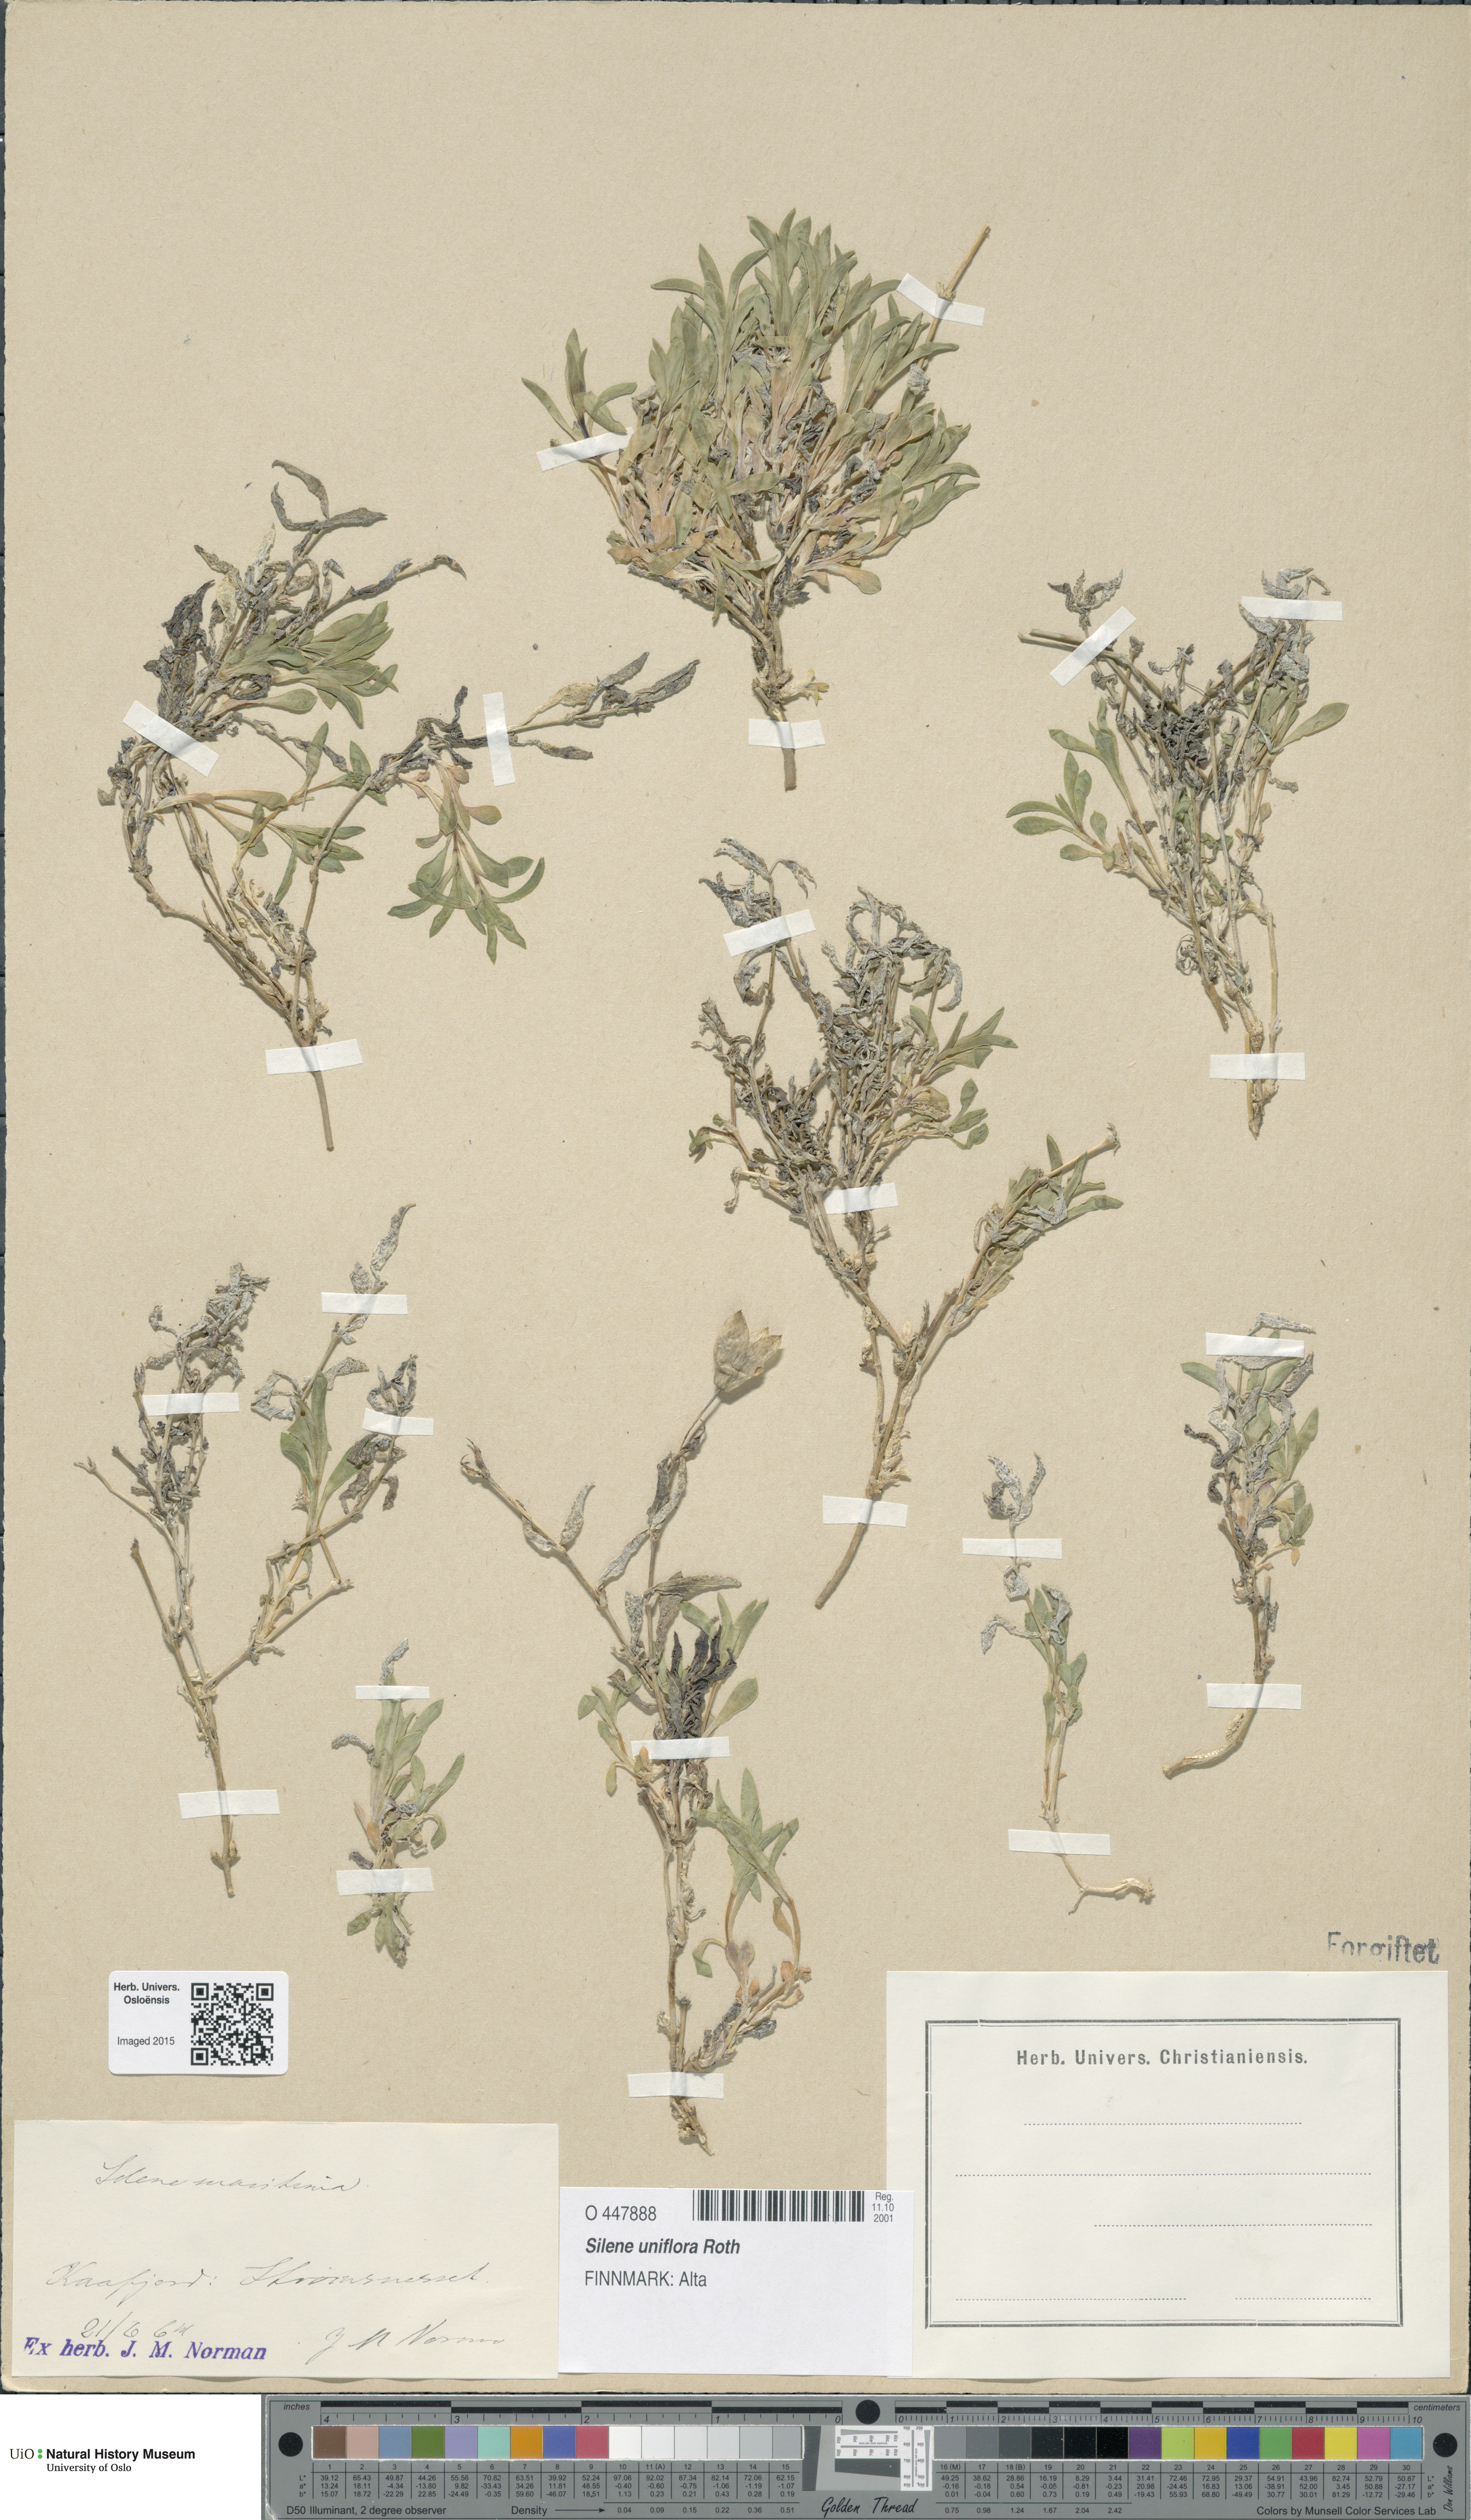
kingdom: Plantae
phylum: Tracheophyta
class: Magnoliopsida
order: Caryophyllales
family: Caryophyllaceae
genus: Silene
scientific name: Silene uniflora
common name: Sea campion
